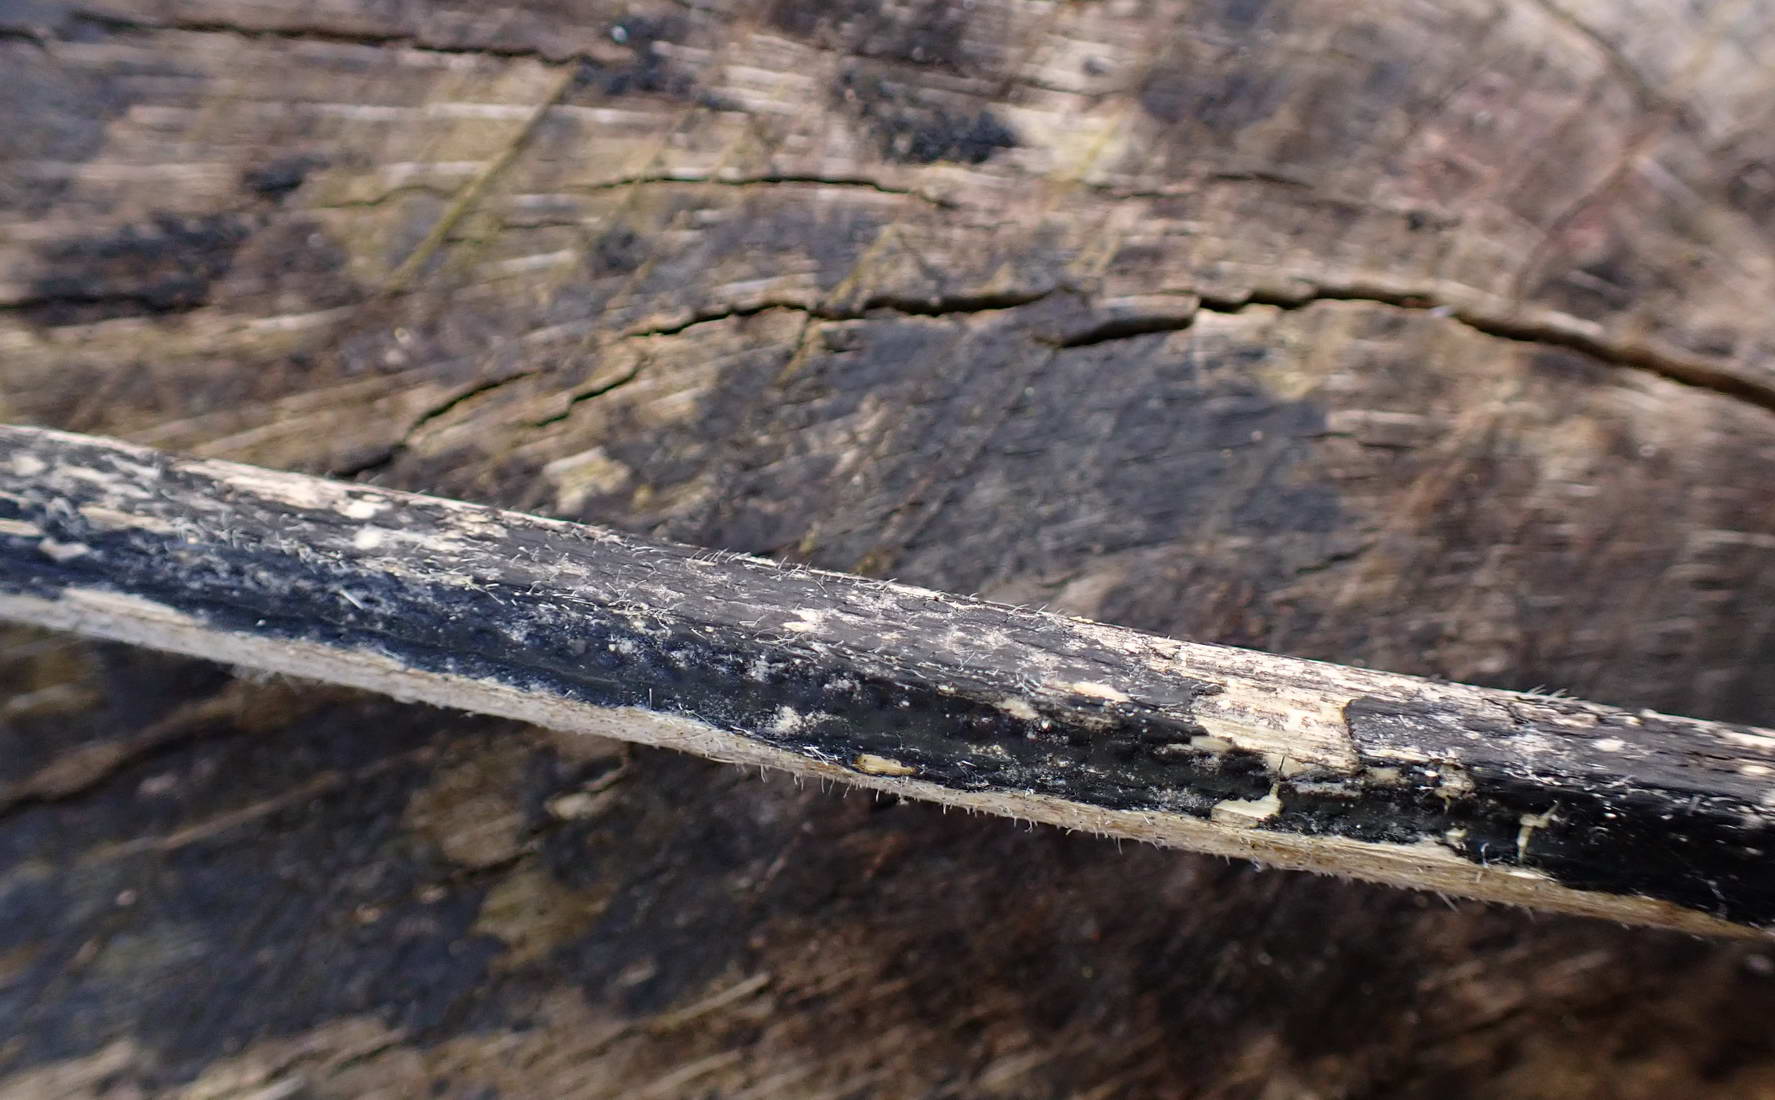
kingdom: Fungi
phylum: Ascomycota
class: Sordariomycetes
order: Diaporthales
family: Diaporthaceae
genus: Diaporthopsis
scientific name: Diaporthopsis urticae
